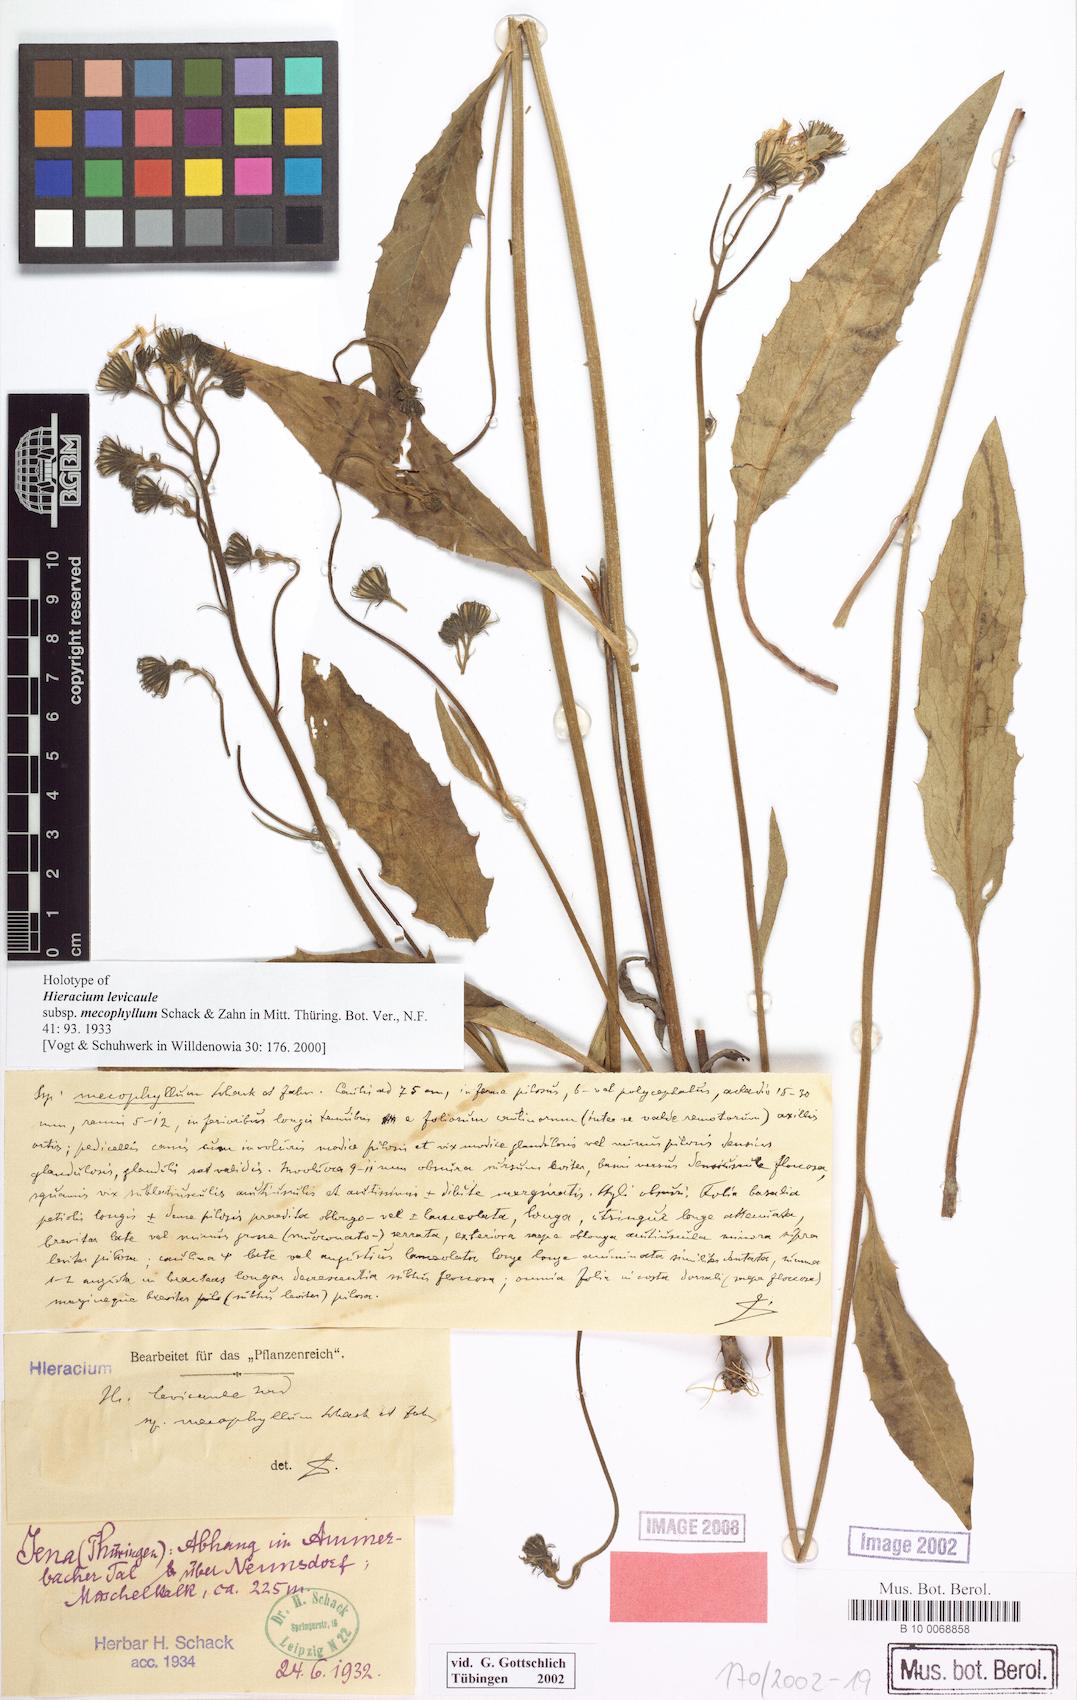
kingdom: Plantae
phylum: Tracheophyta
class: Magnoliopsida
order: Asterales
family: Asteraceae
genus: Hieracium
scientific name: Hieracium levicaule
